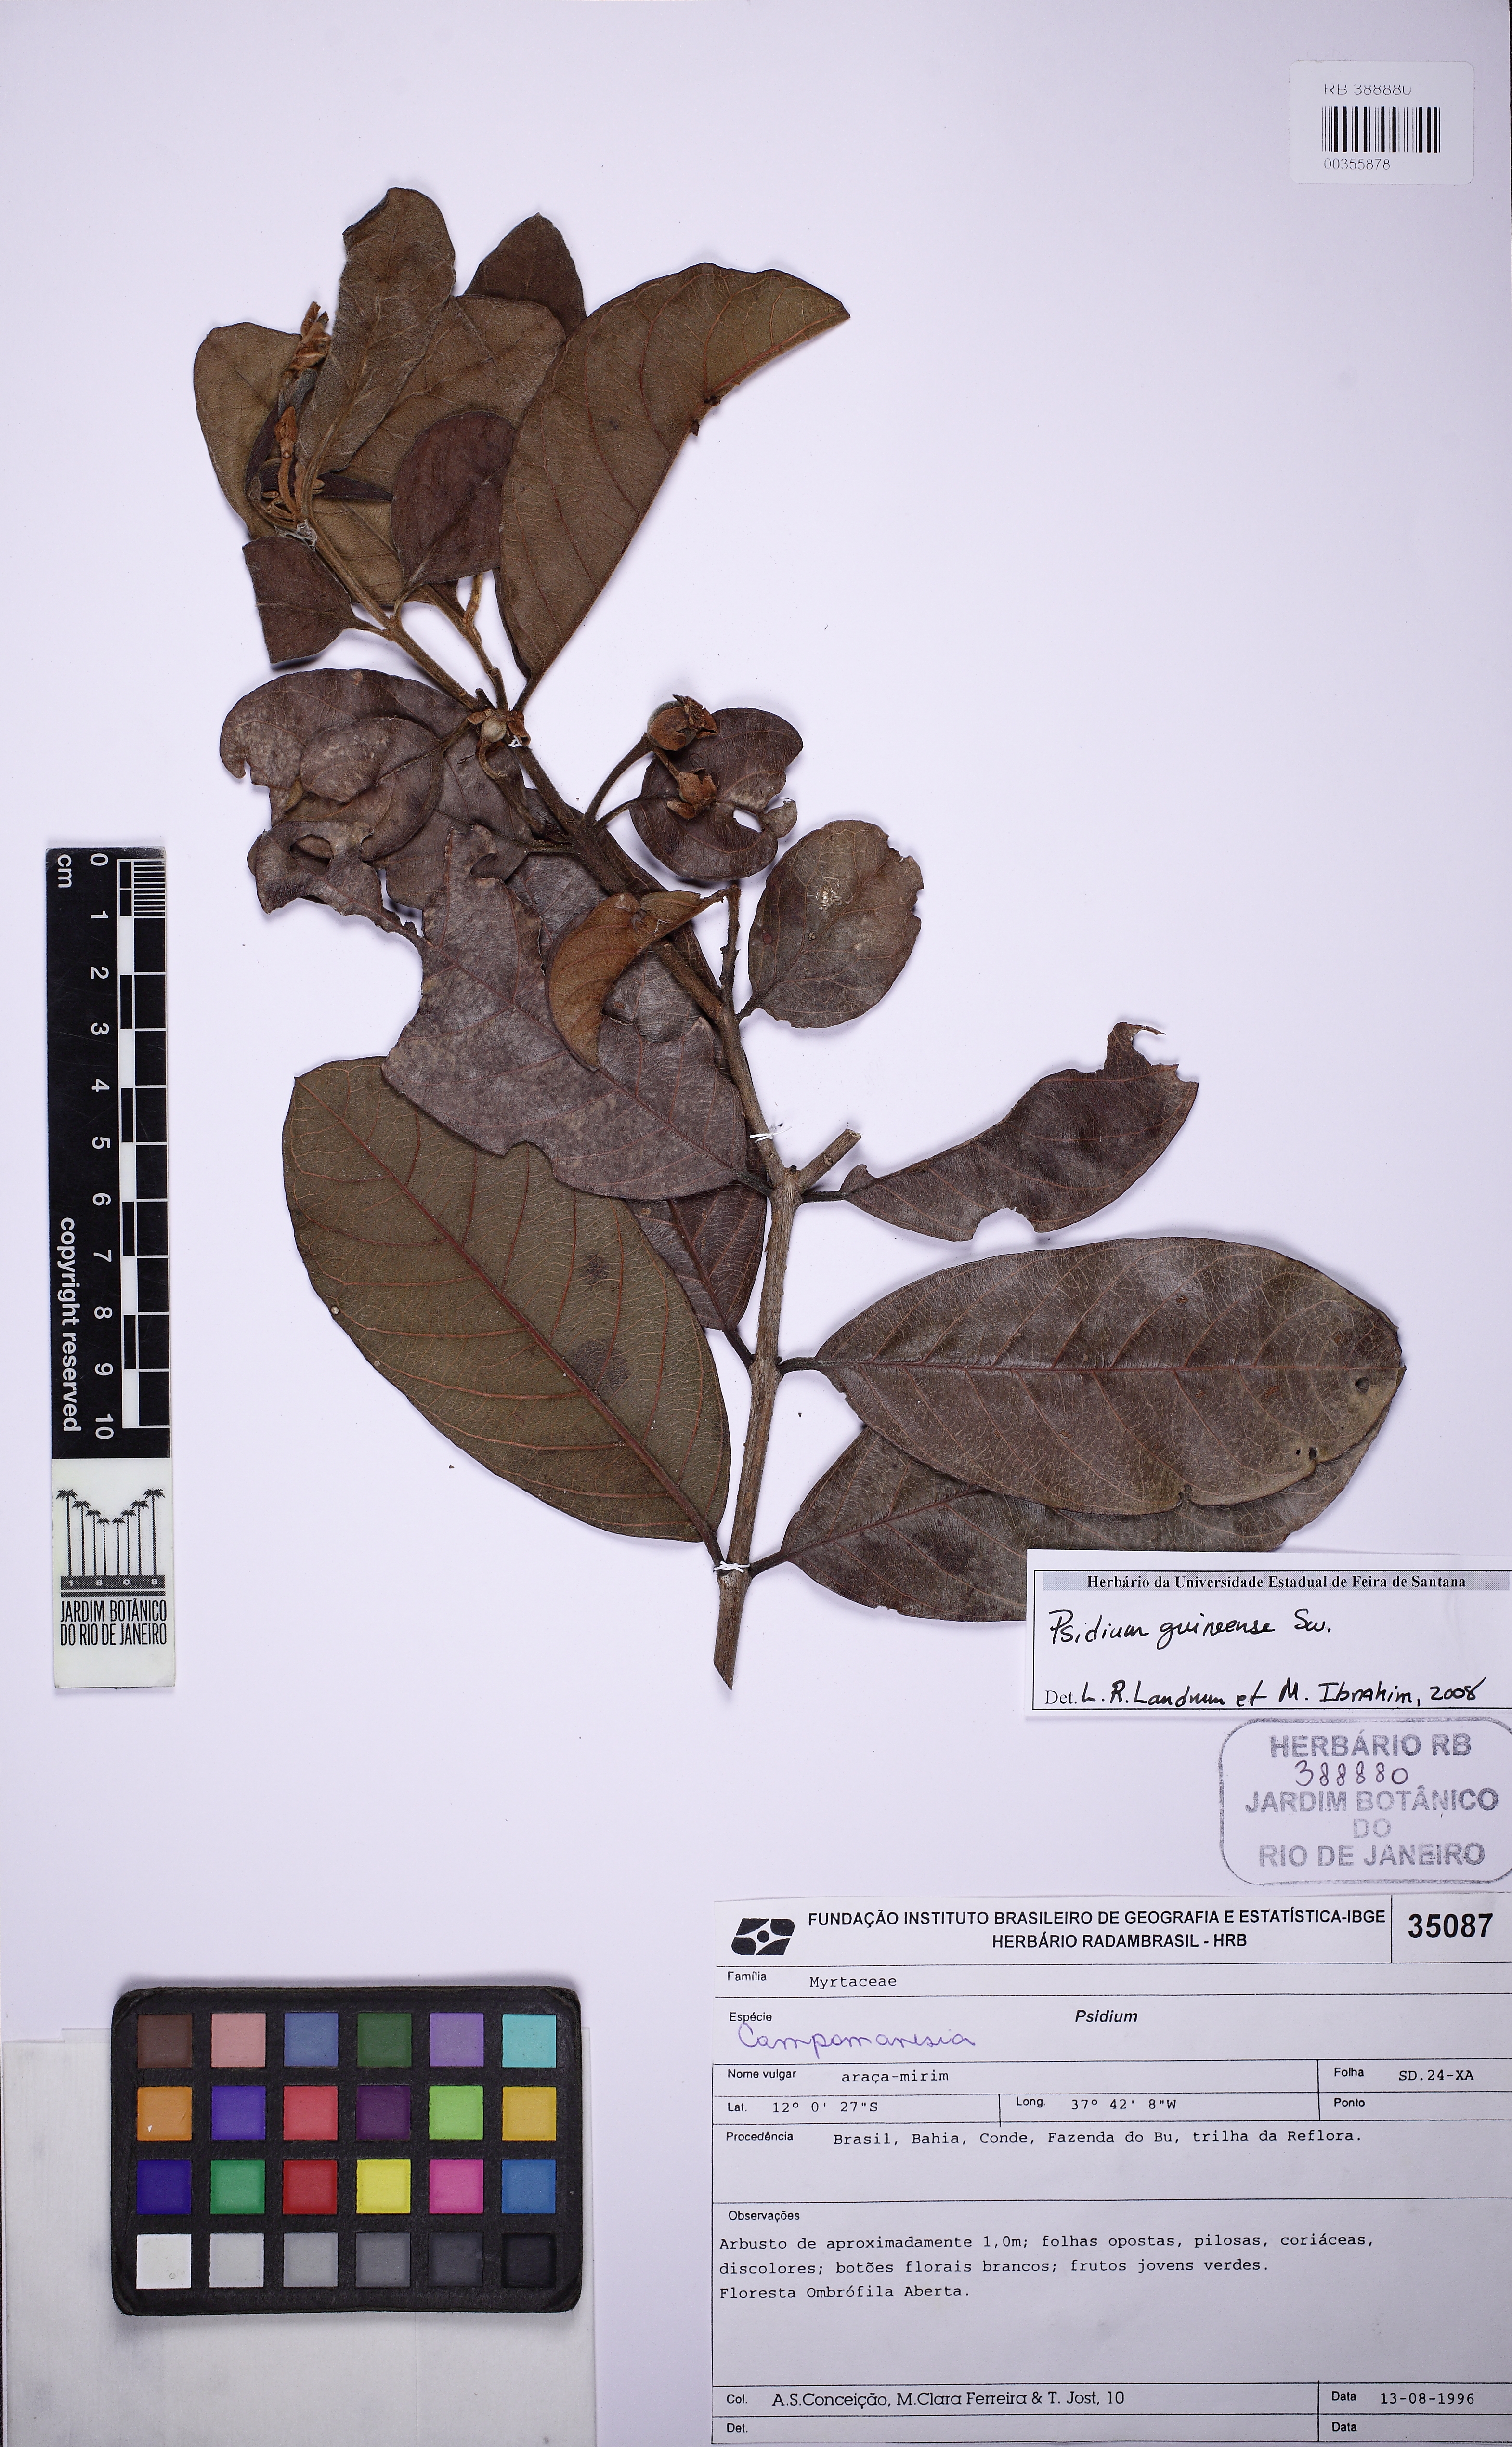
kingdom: Plantae
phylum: Tracheophyta
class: Magnoliopsida
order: Myrtales
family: Myrtaceae
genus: Psidium
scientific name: Psidium guineense
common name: Brazilian guava
